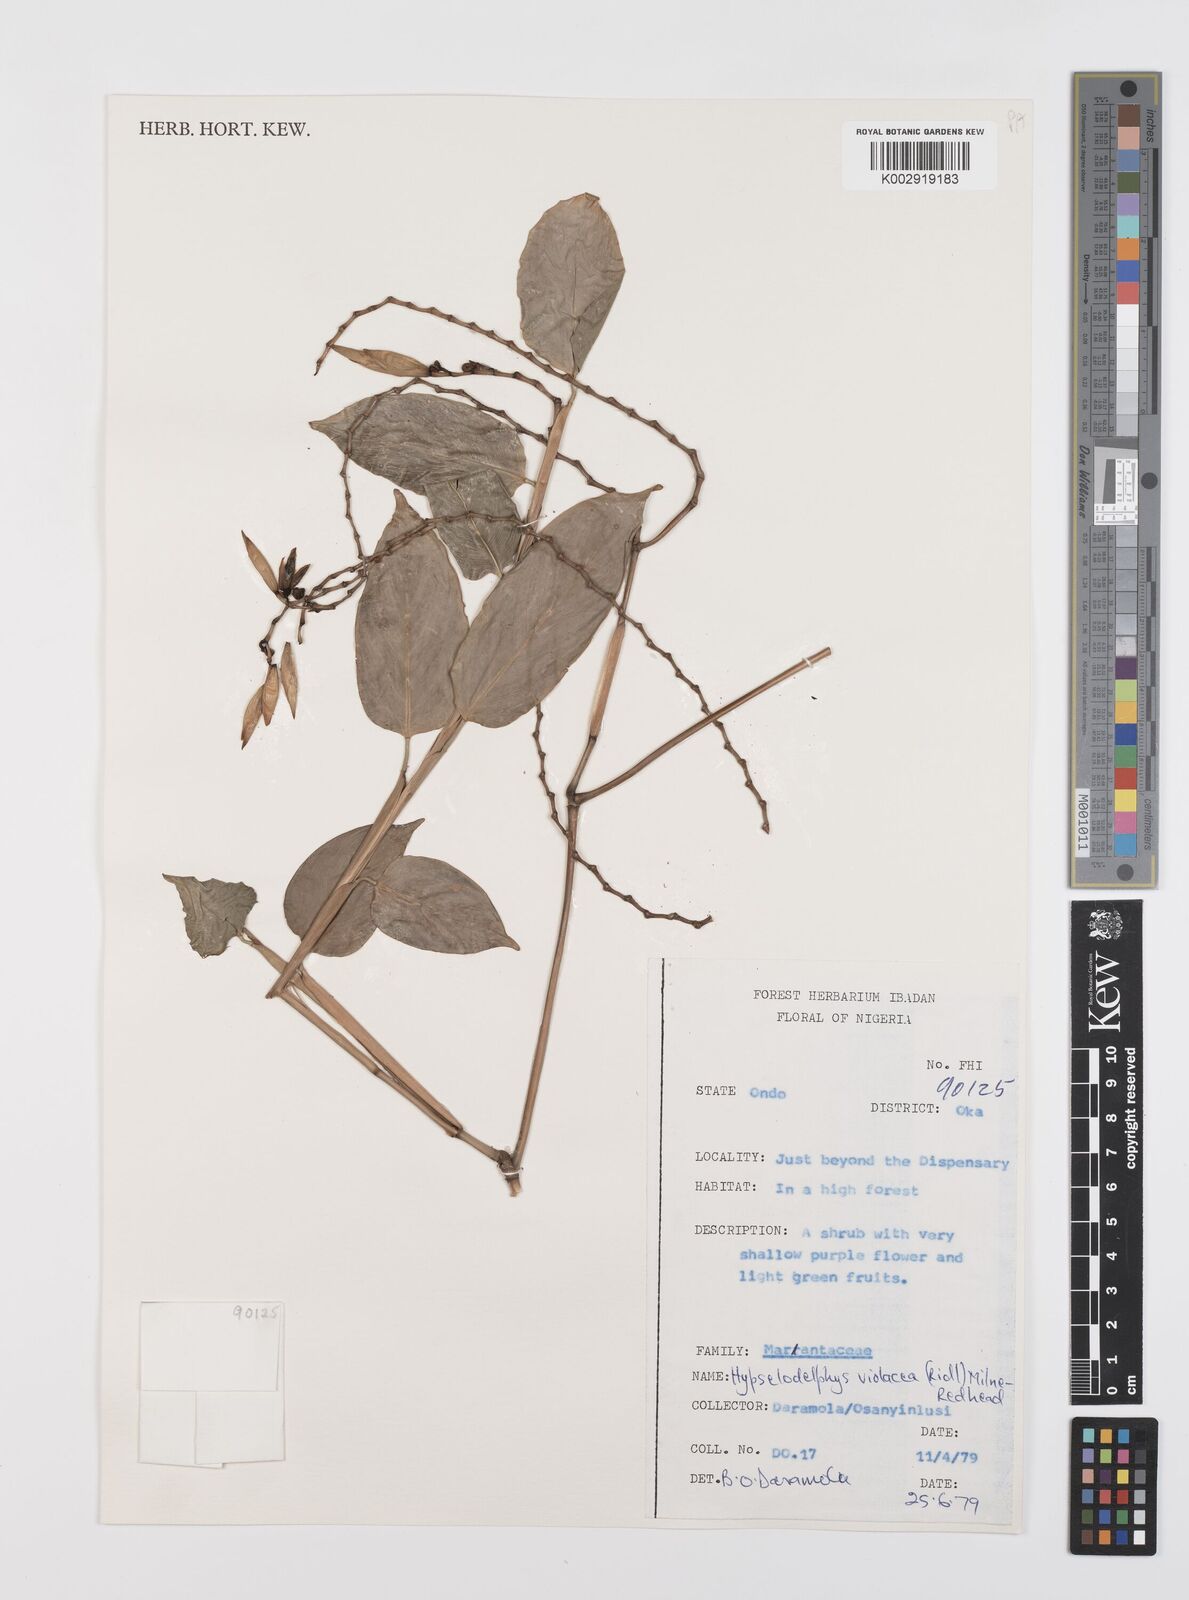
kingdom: Plantae
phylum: Tracheophyta
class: Liliopsida
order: Zingiberales
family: Marantaceae
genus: Hypselodelphys
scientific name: Hypselodelphys violacea
